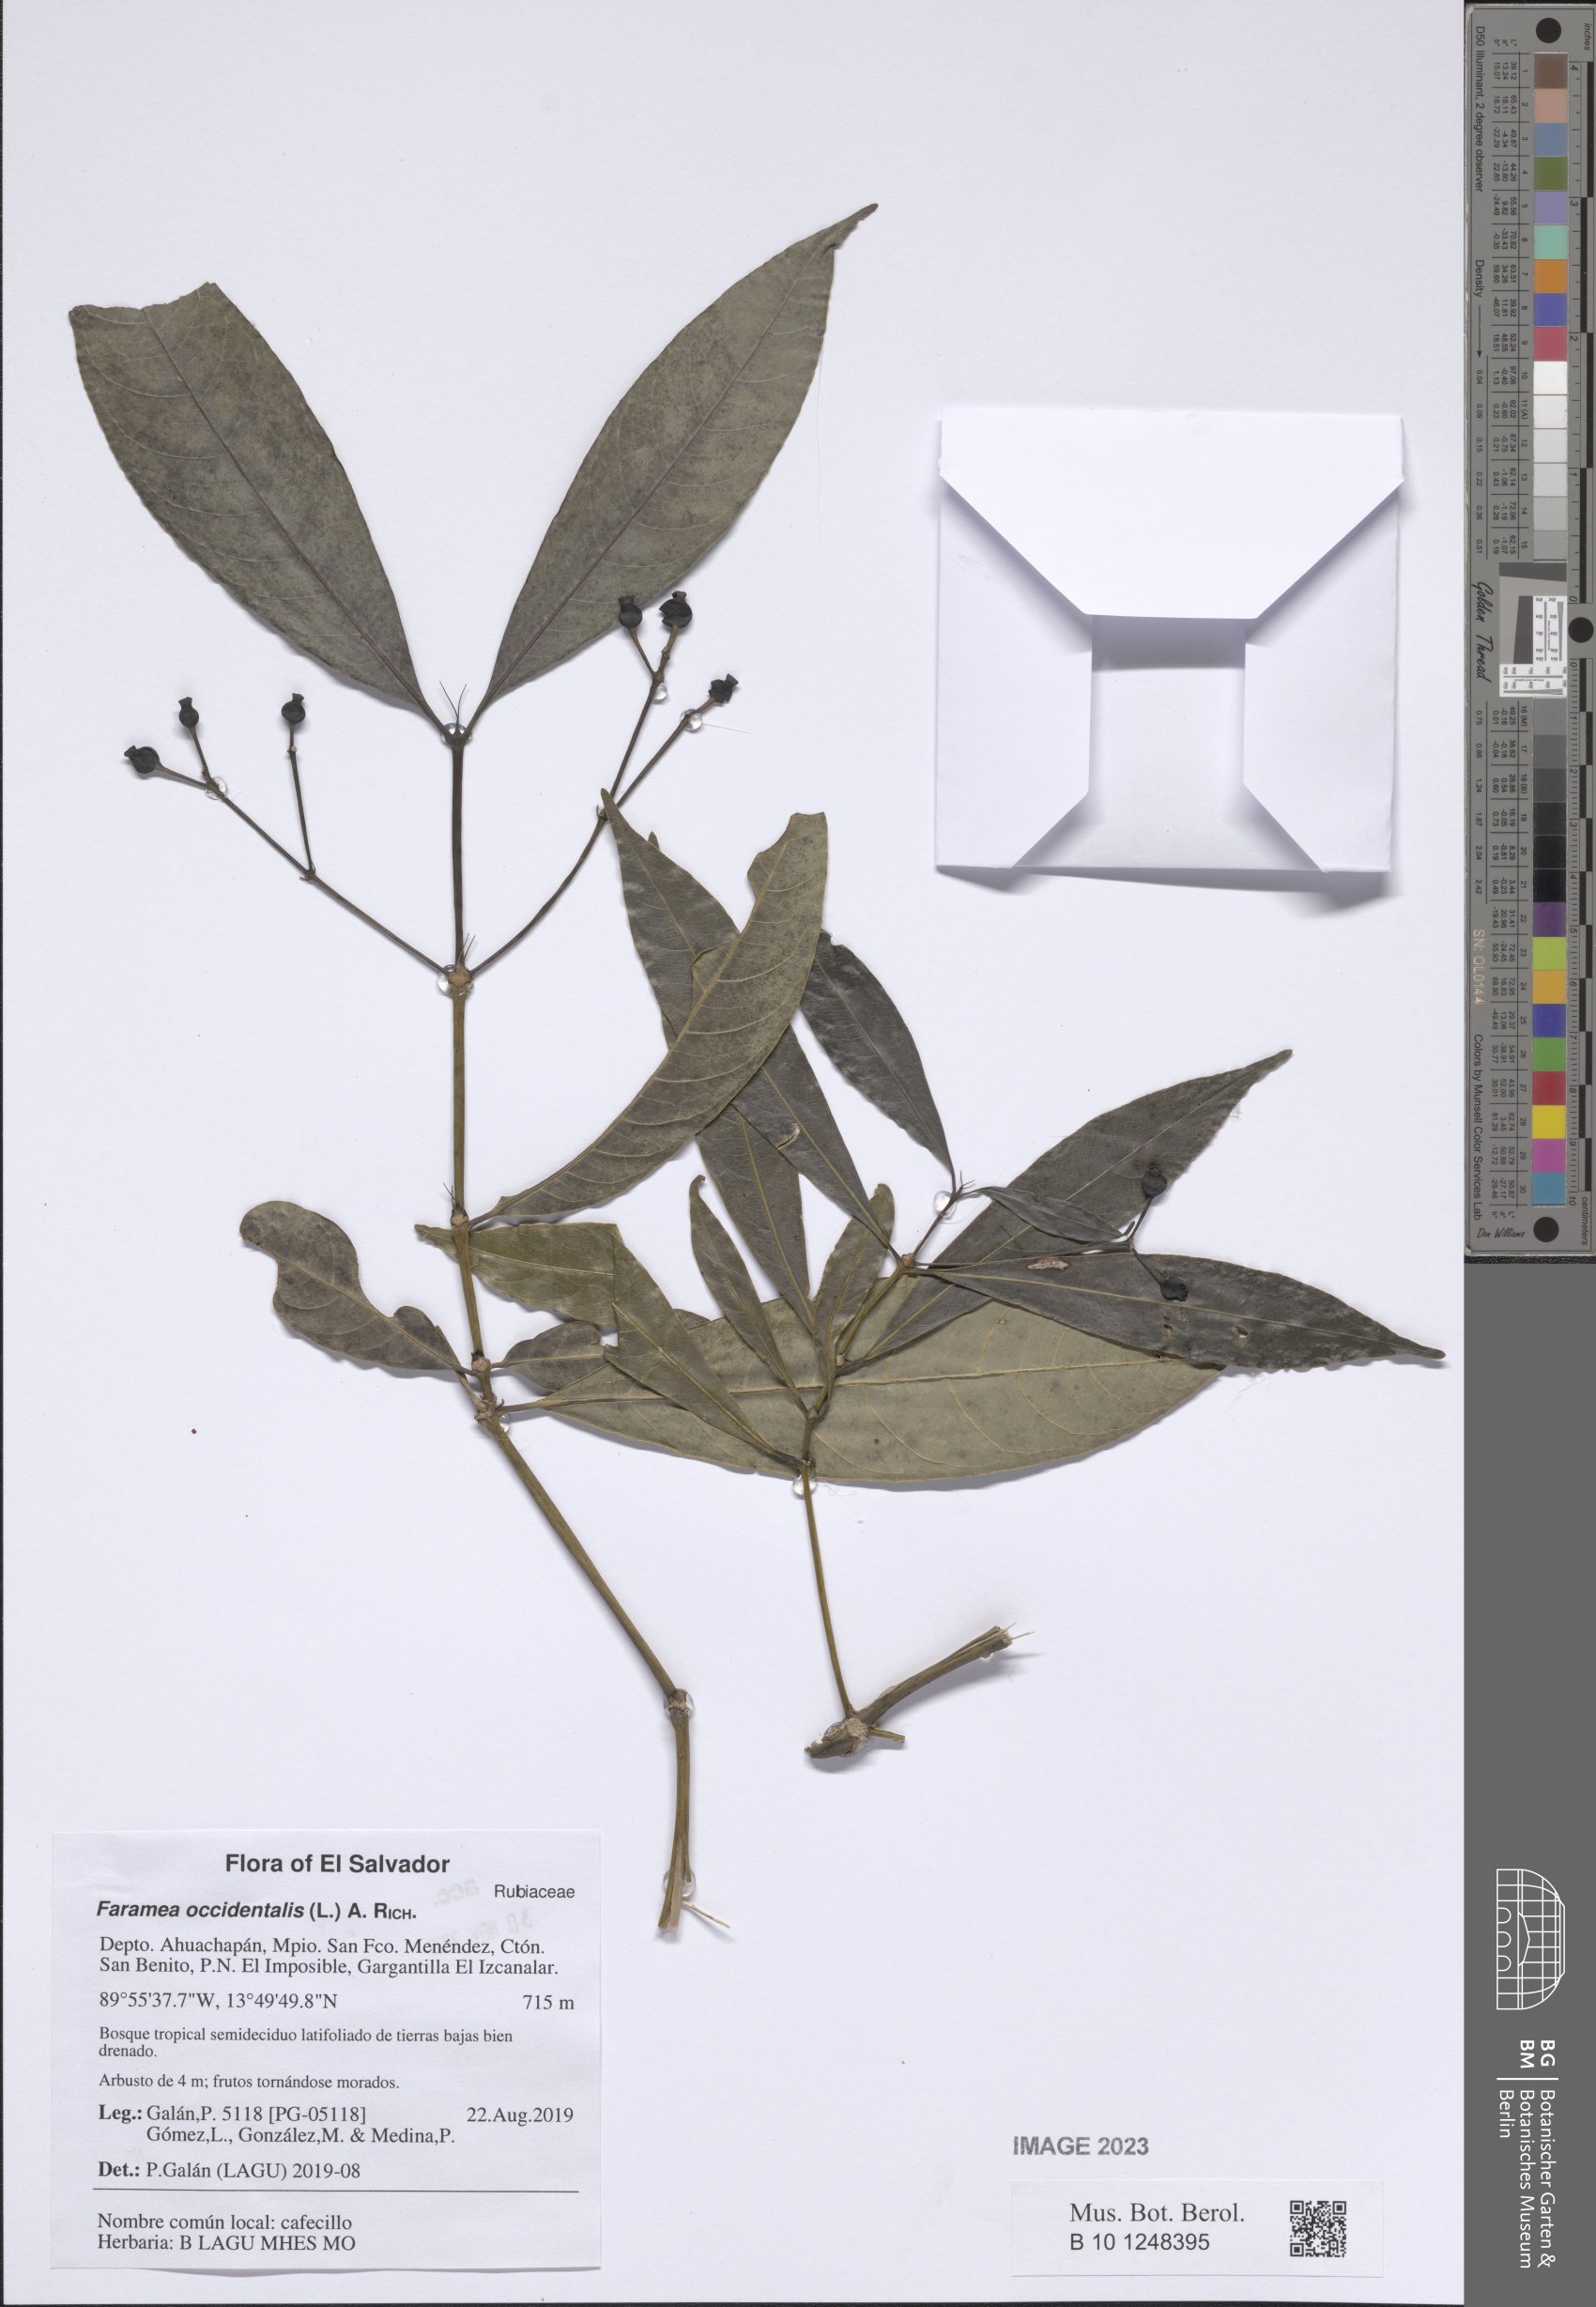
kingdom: Plantae
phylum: Tracheophyta
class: Magnoliopsida
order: Gentianales
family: Rubiaceae
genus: Faramea
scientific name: Faramea occidentalis
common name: False coffee
